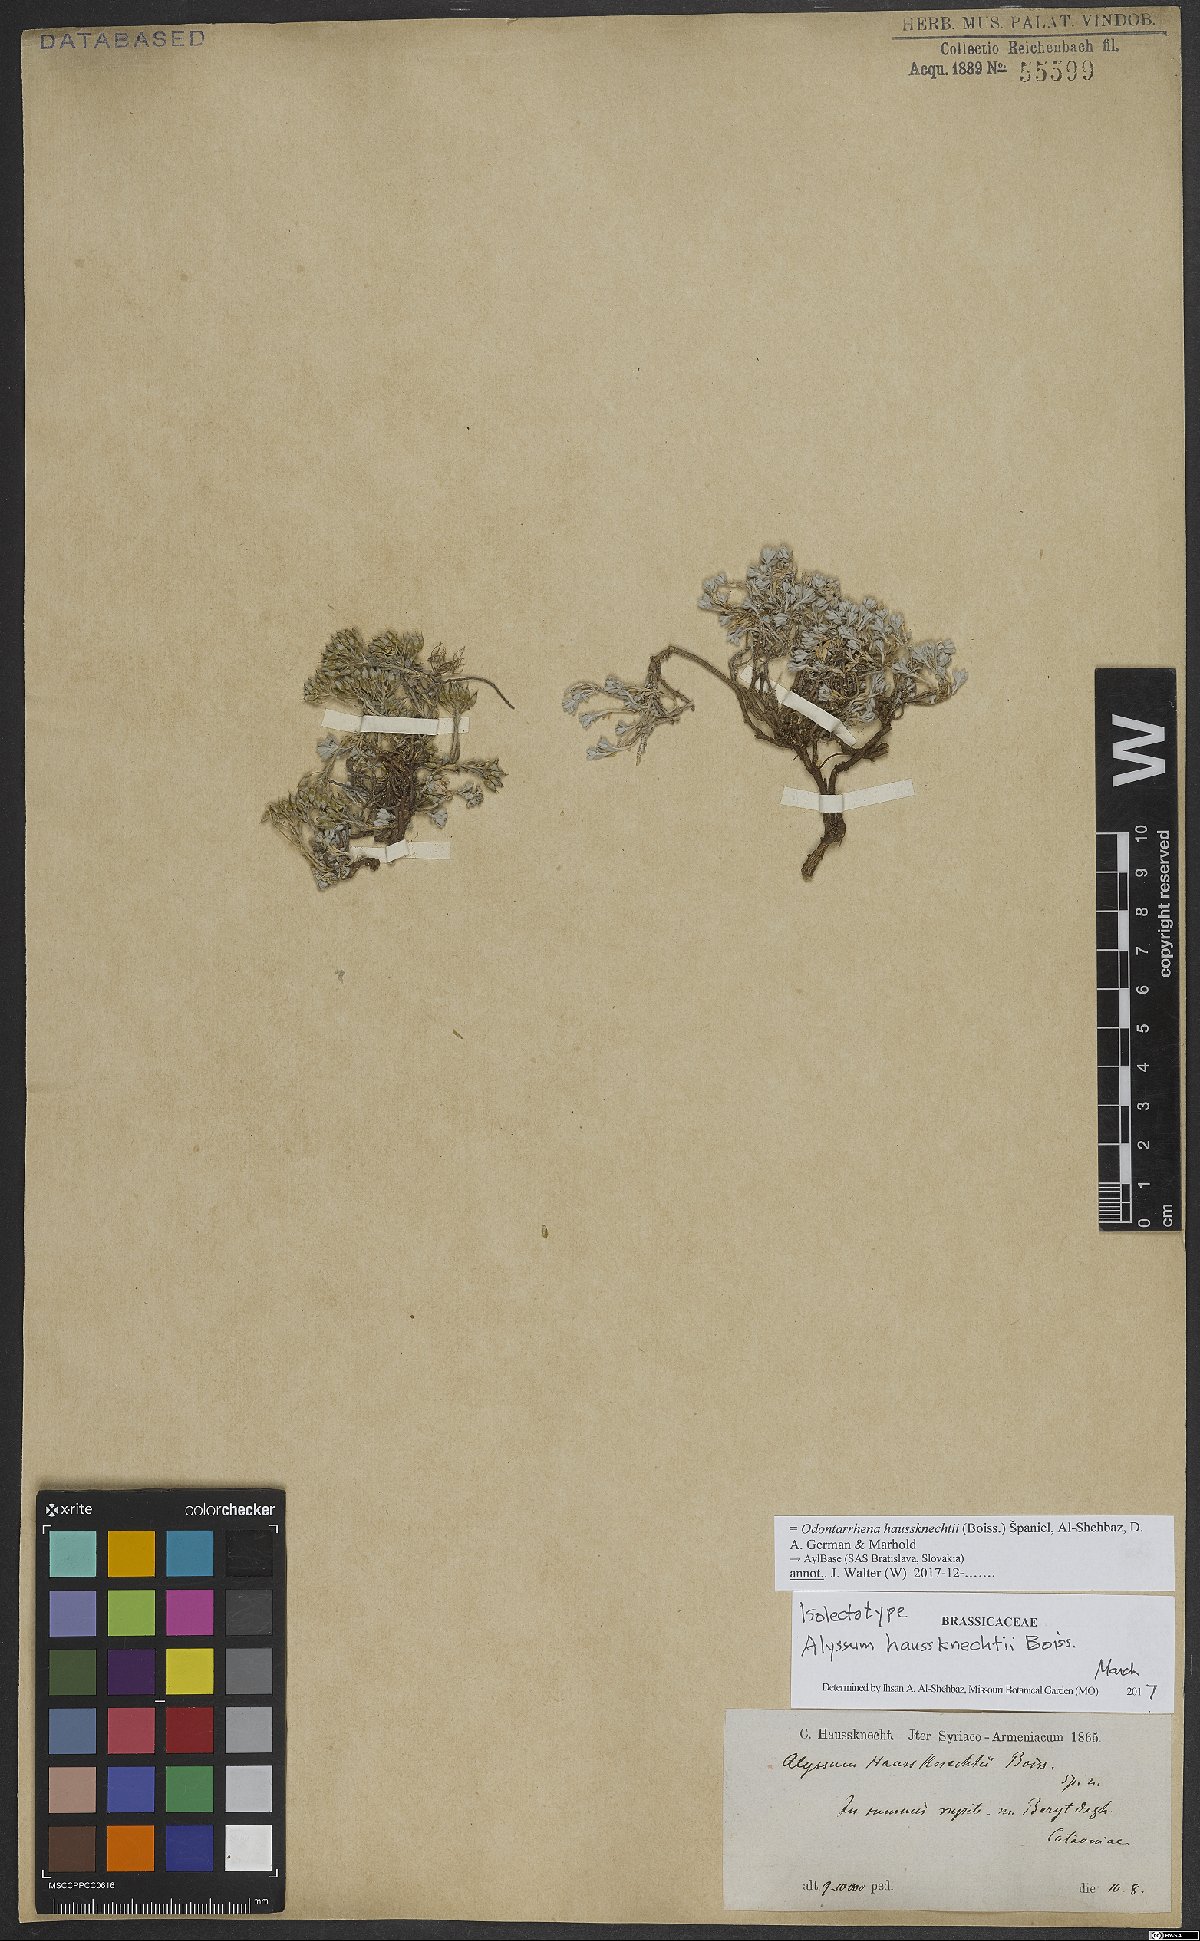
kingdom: Plantae
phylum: Tracheophyta
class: Magnoliopsida
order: Brassicales
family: Brassicaceae
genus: Odontarrhena
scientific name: Odontarrhena haussknechtii
